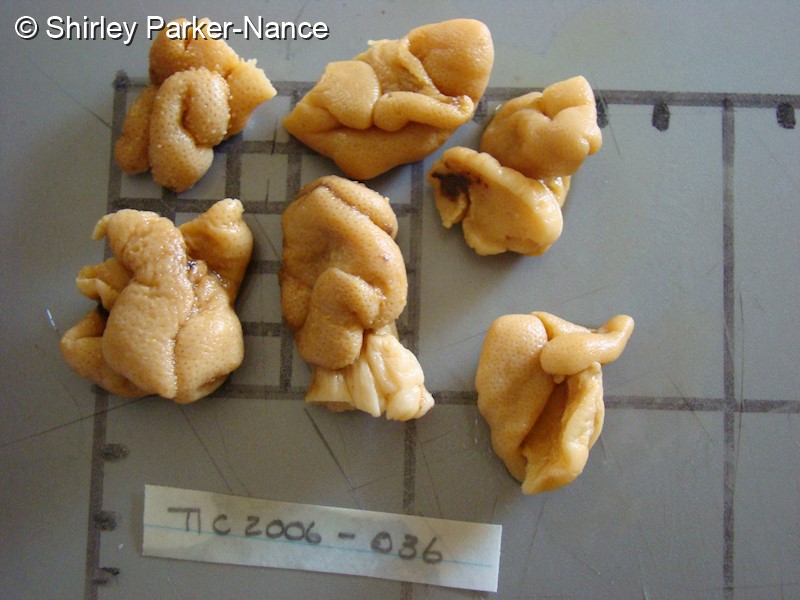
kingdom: Animalia
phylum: Cnidaria
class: Anthozoa
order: Malacalcyonacea
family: Sarcophytidae
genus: Sarcophyton
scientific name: Sarcophyton stellatum
